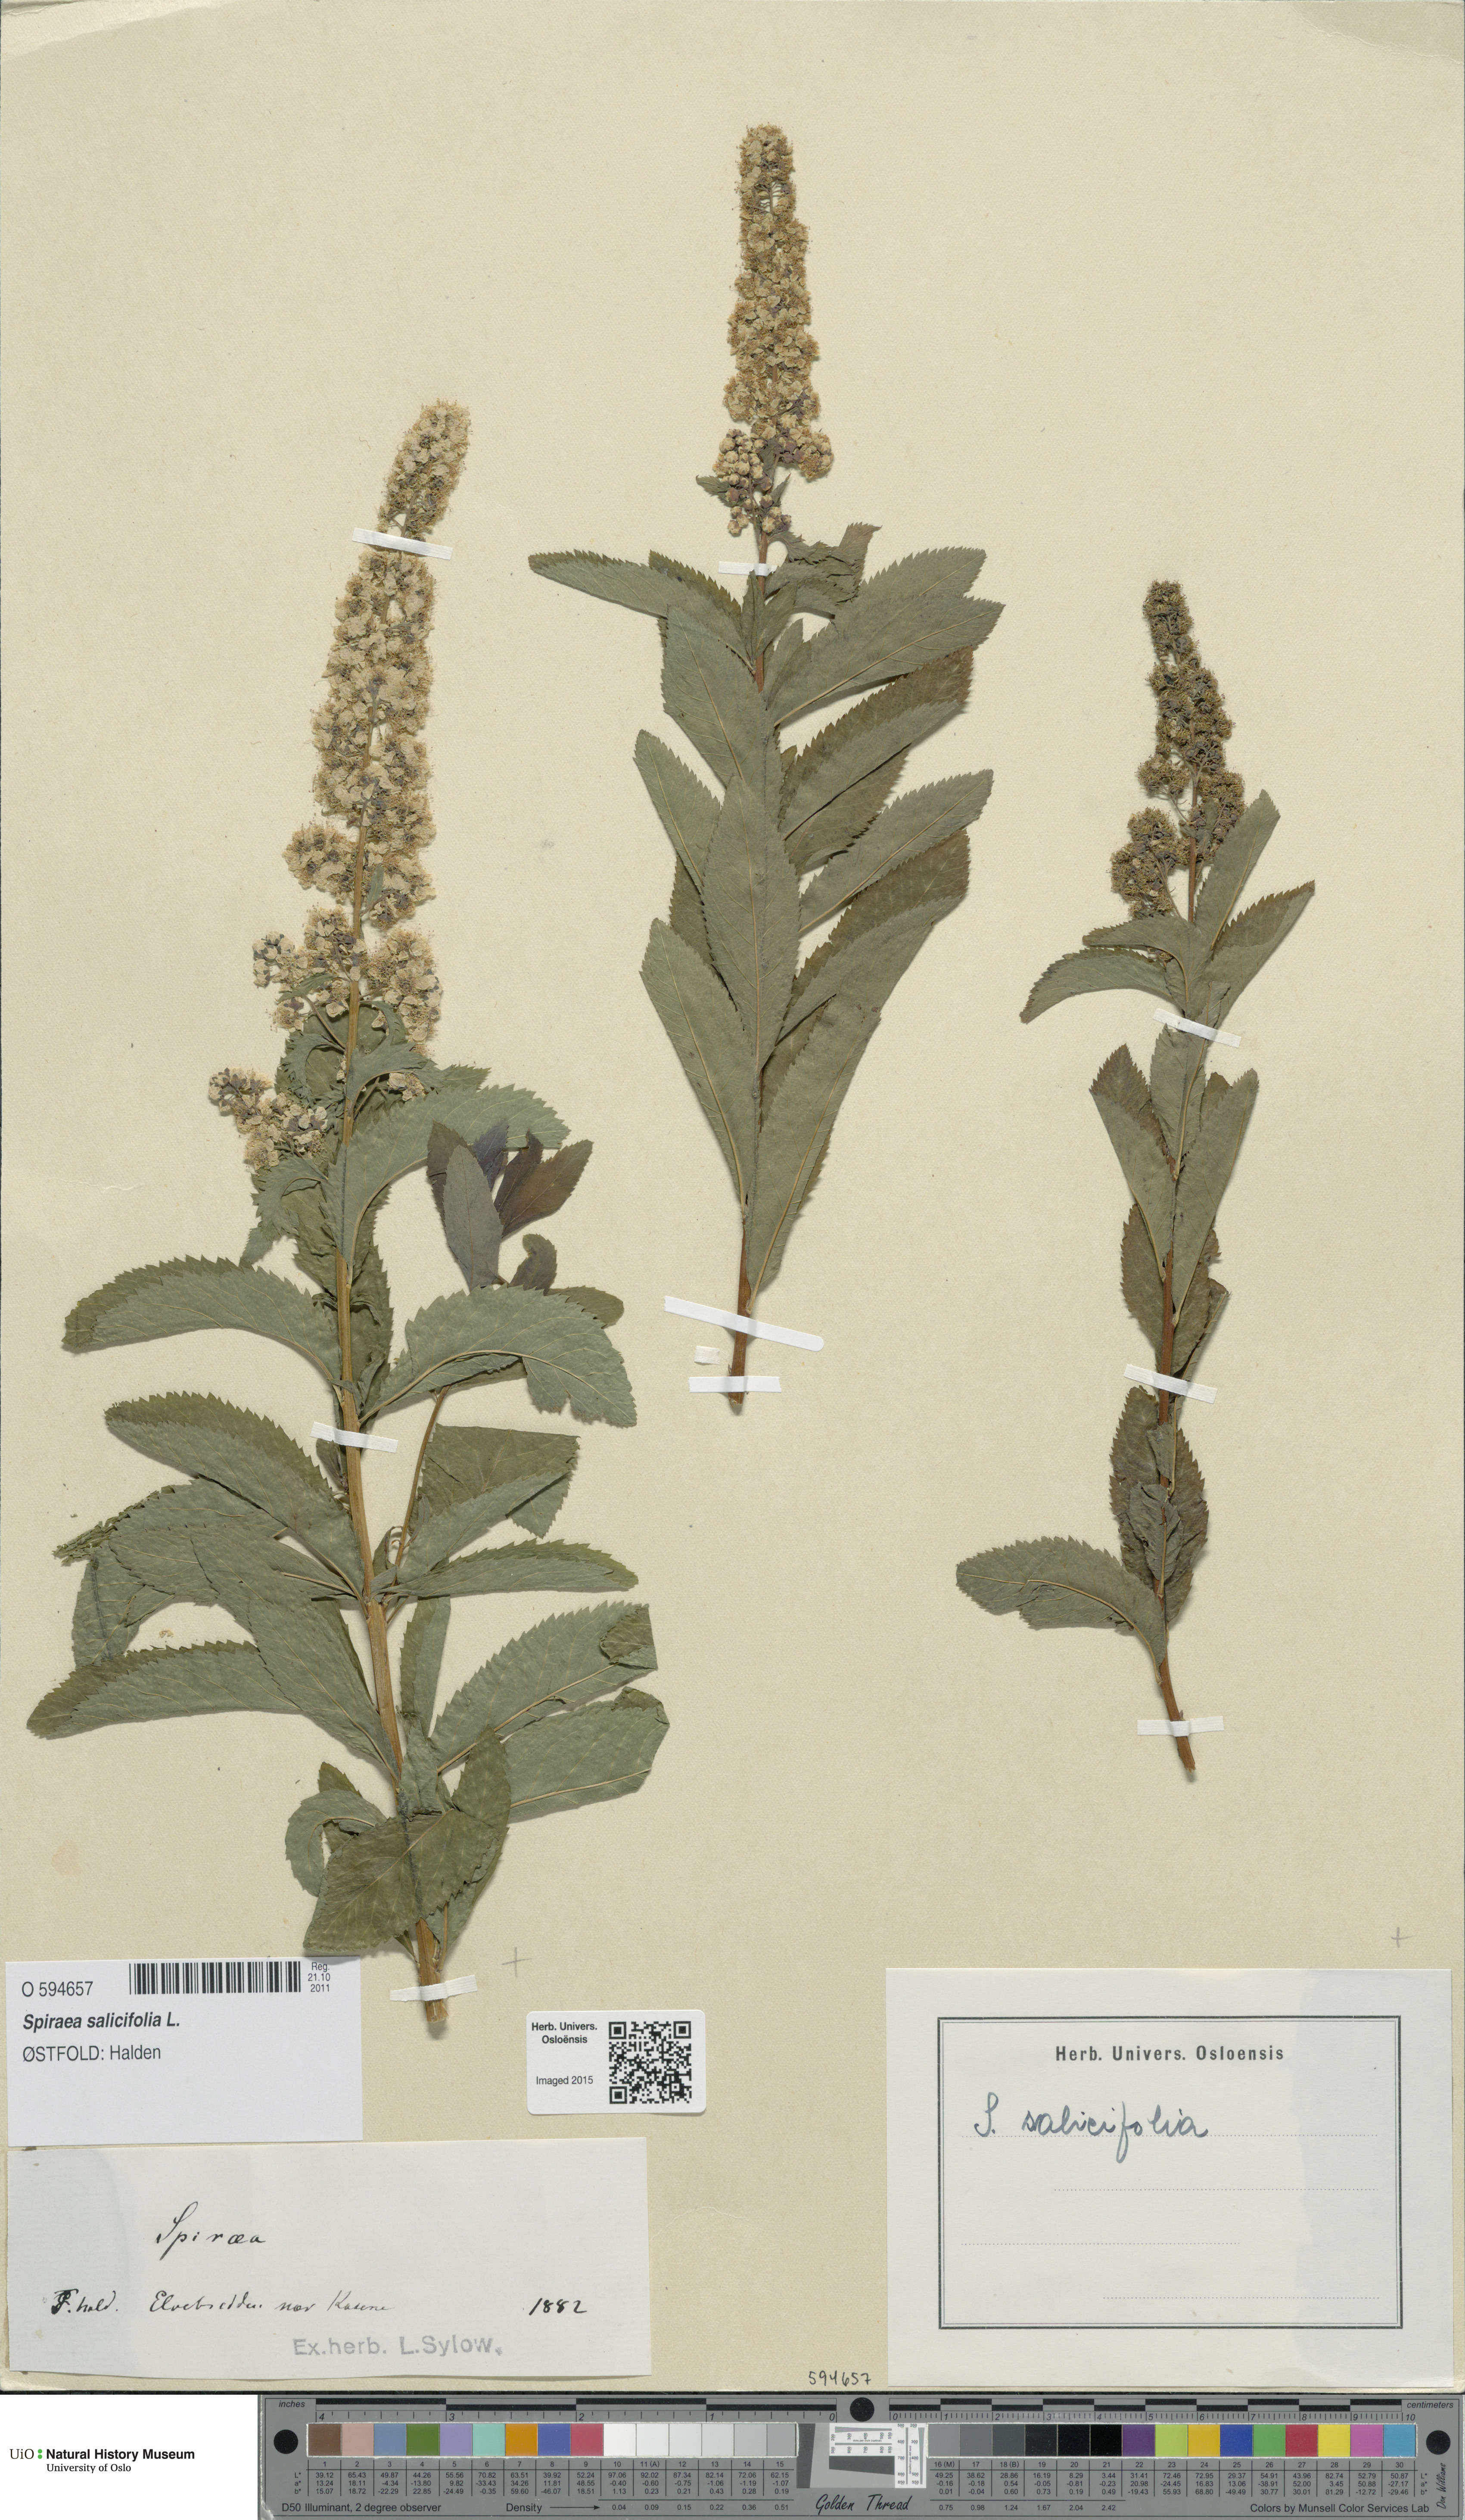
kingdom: Plantae
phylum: Tracheophyta
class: Magnoliopsida
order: Rosales
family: Rosaceae
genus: Spiraea
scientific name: Spiraea salicifolia
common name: Bridewort
